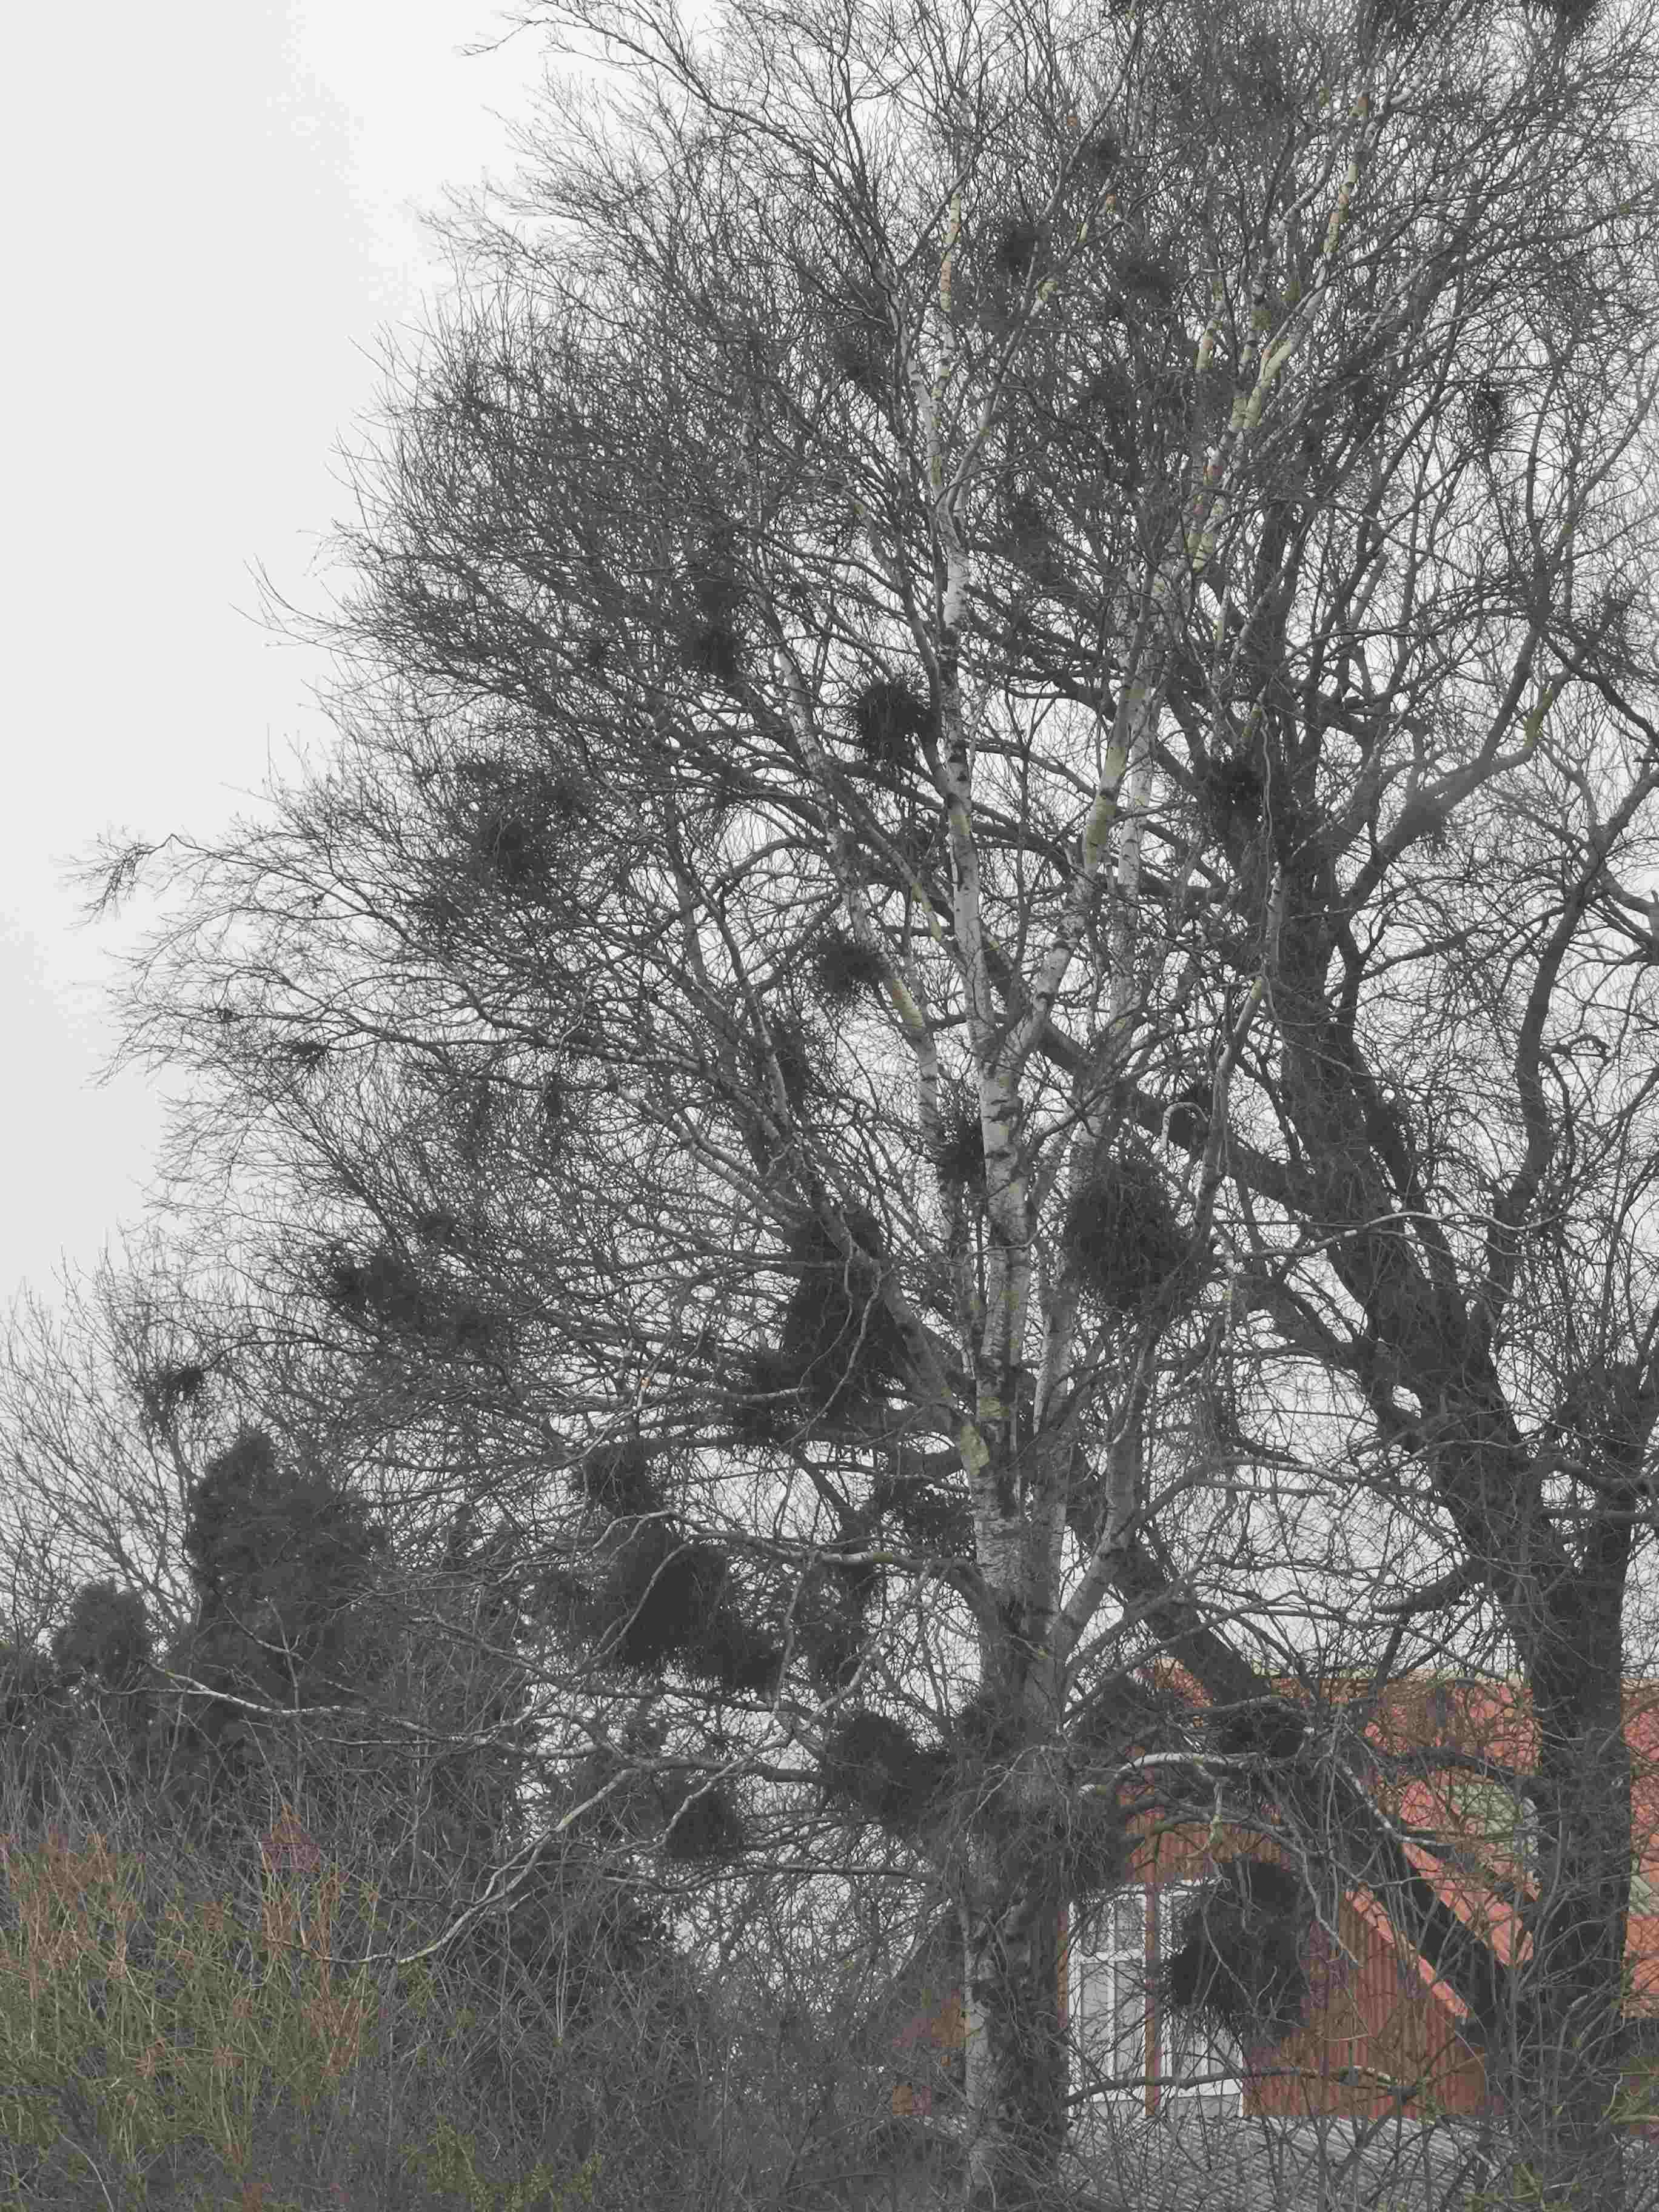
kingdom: Fungi
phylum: Ascomycota
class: Taphrinomycetes
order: Taphrinales
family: Taphrinaceae
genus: Taphrina
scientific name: Taphrina betulina
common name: hekse-sækdug
